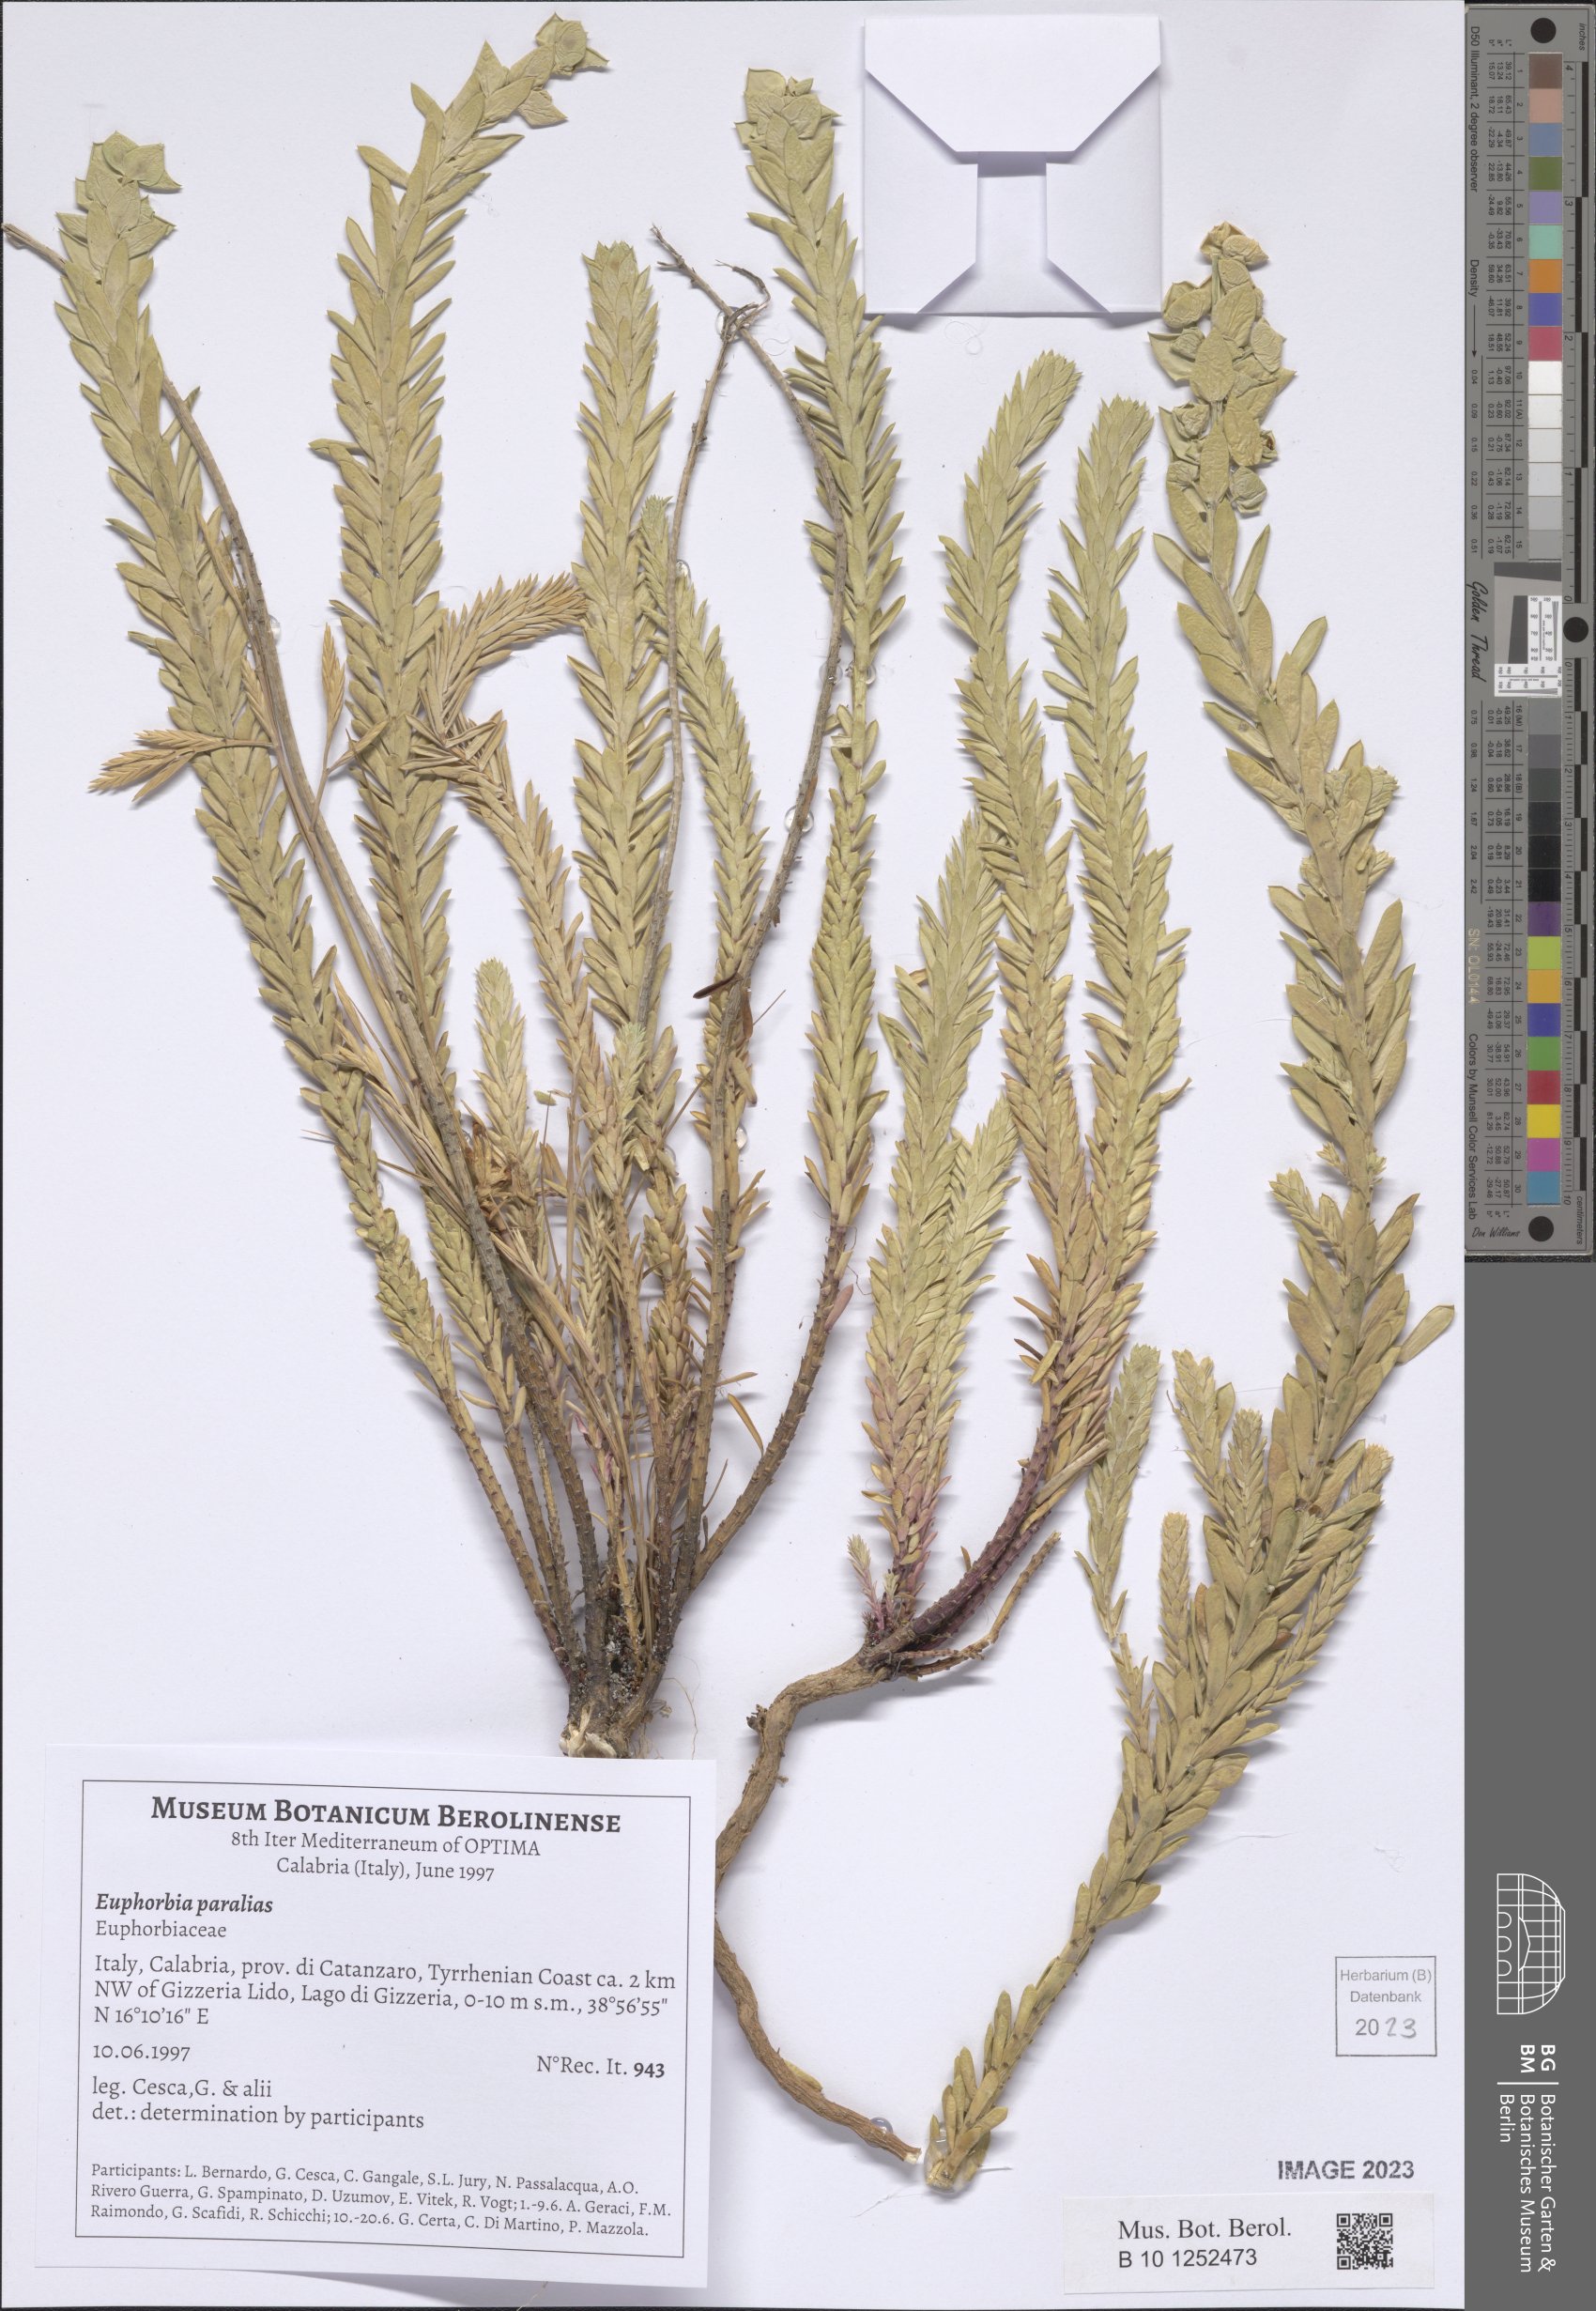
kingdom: Plantae
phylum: Tracheophyta
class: Magnoliopsida
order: Malpighiales
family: Euphorbiaceae
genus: Euphorbia
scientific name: Euphorbia paralias
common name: Sea spurge
